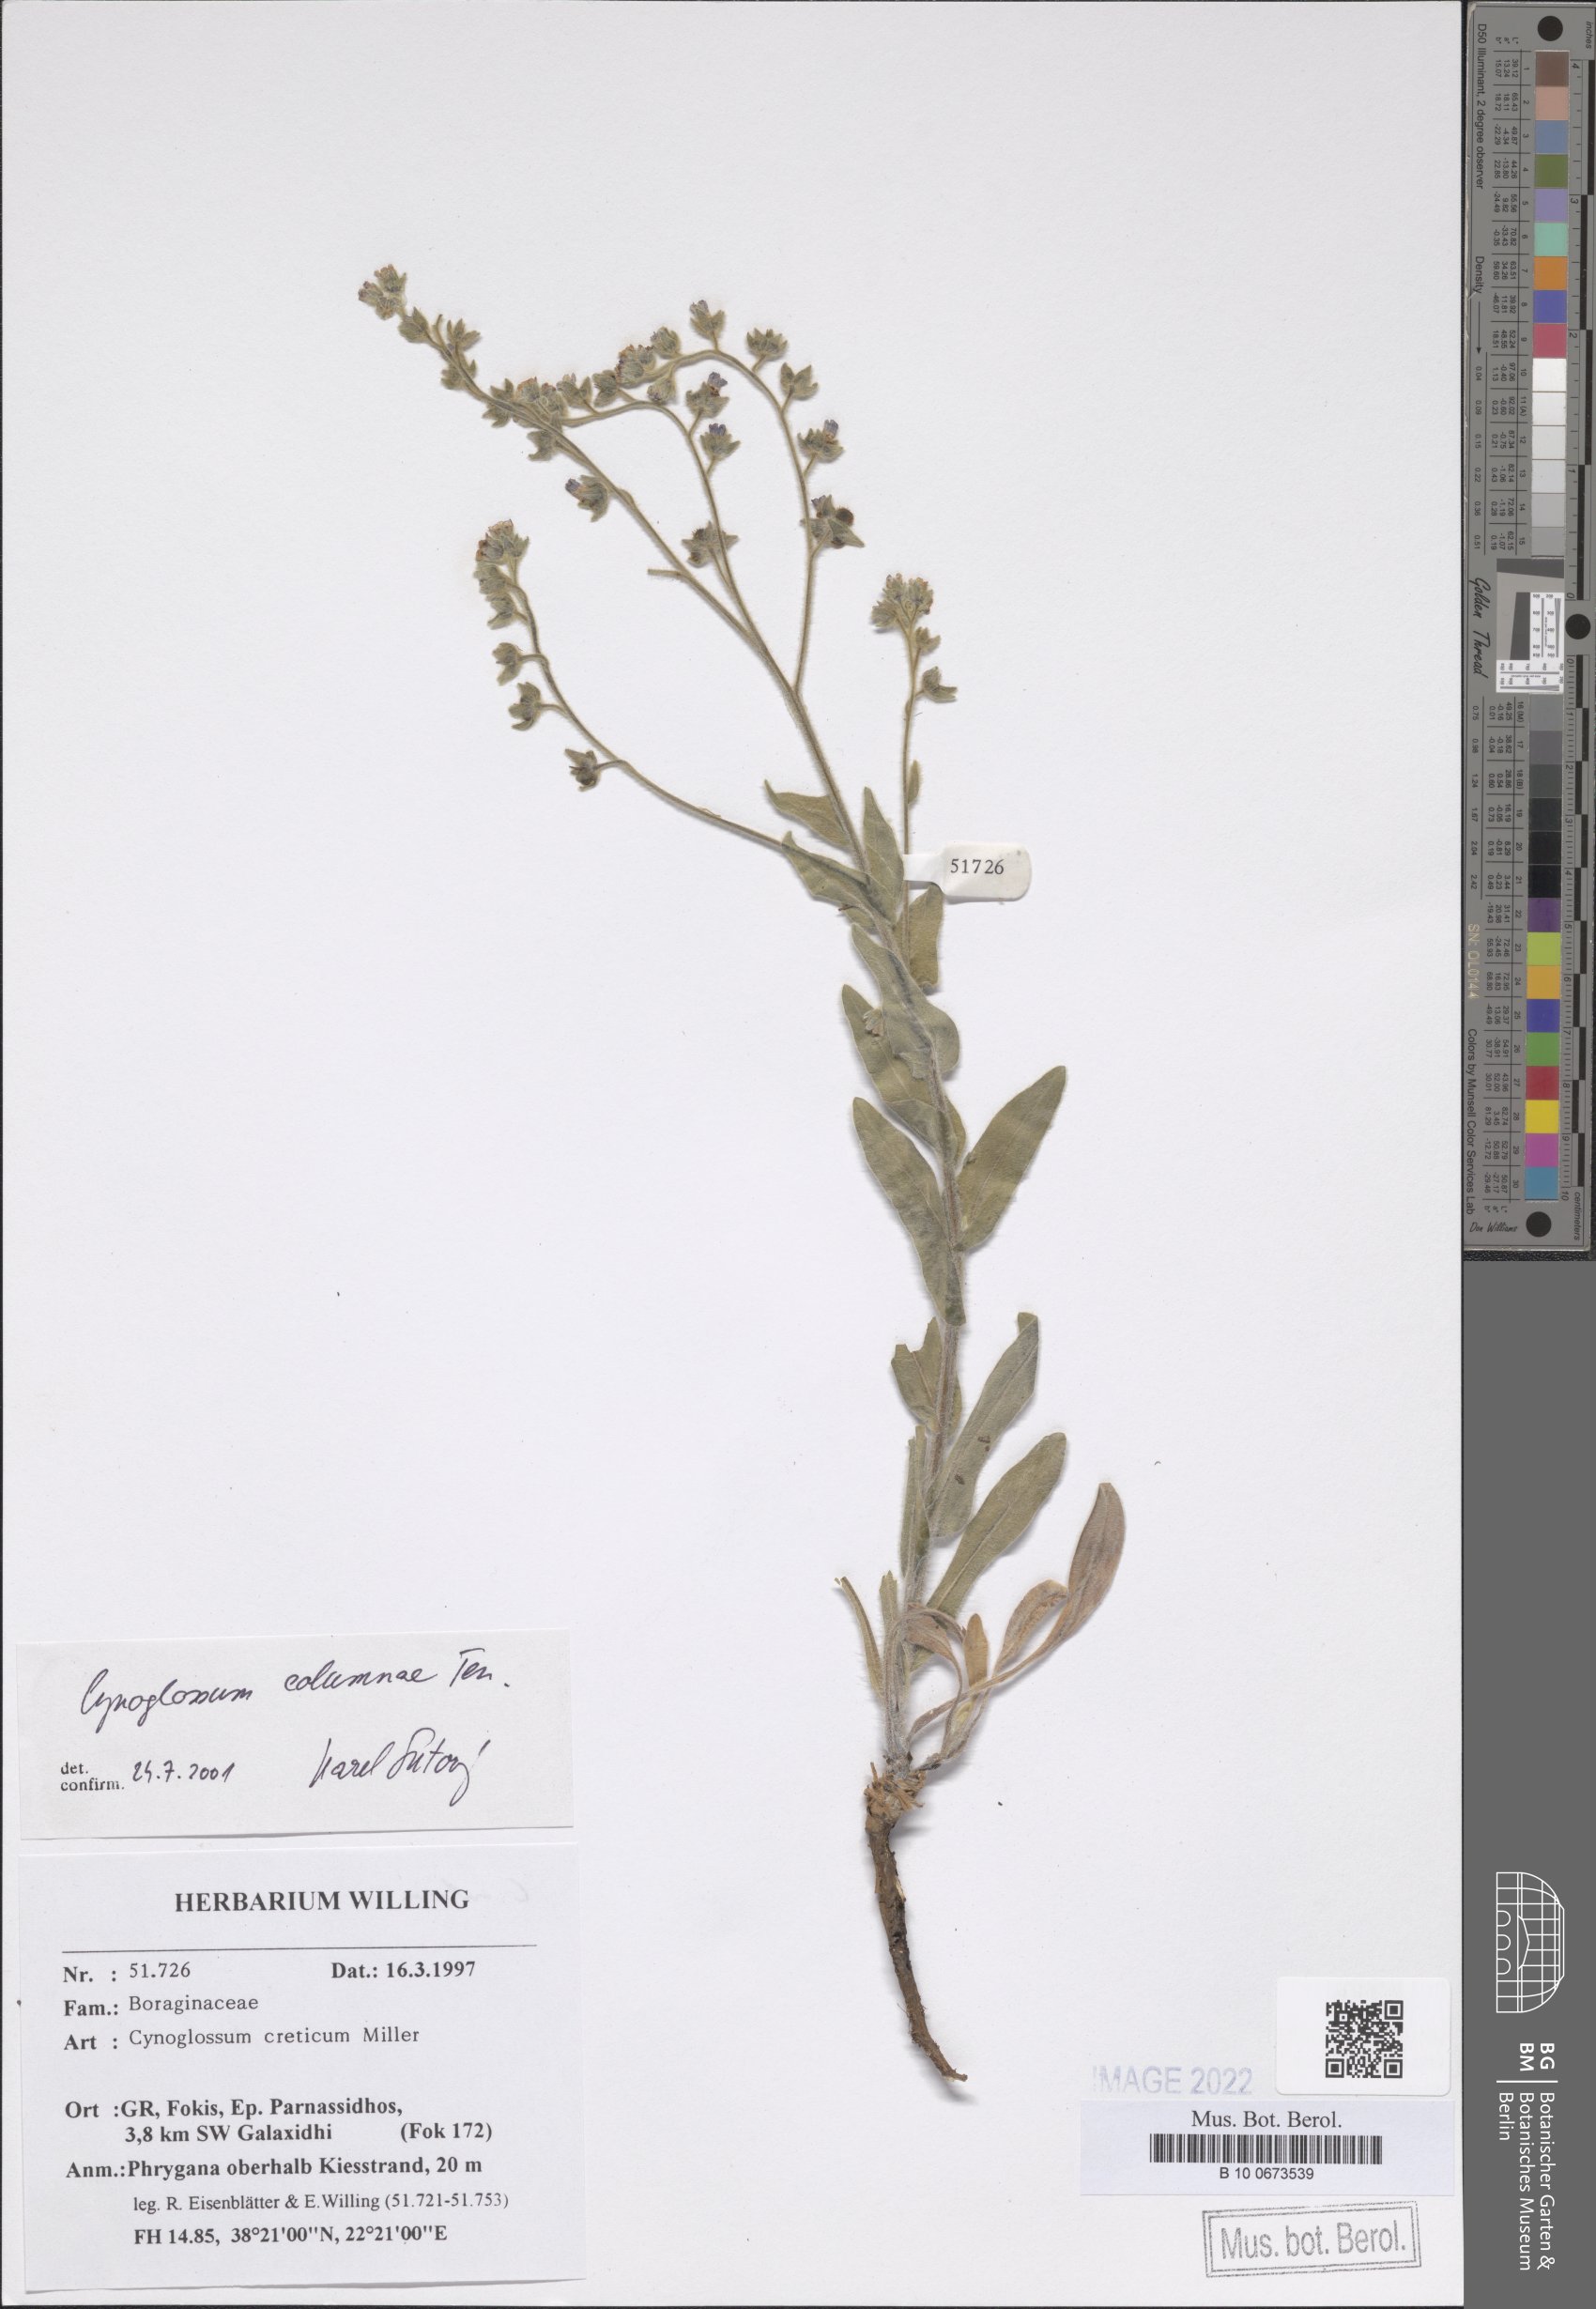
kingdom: Plantae
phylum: Tracheophyta
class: Magnoliopsida
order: Boraginales
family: Boraginaceae
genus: Rindera
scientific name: Rindera columnae
